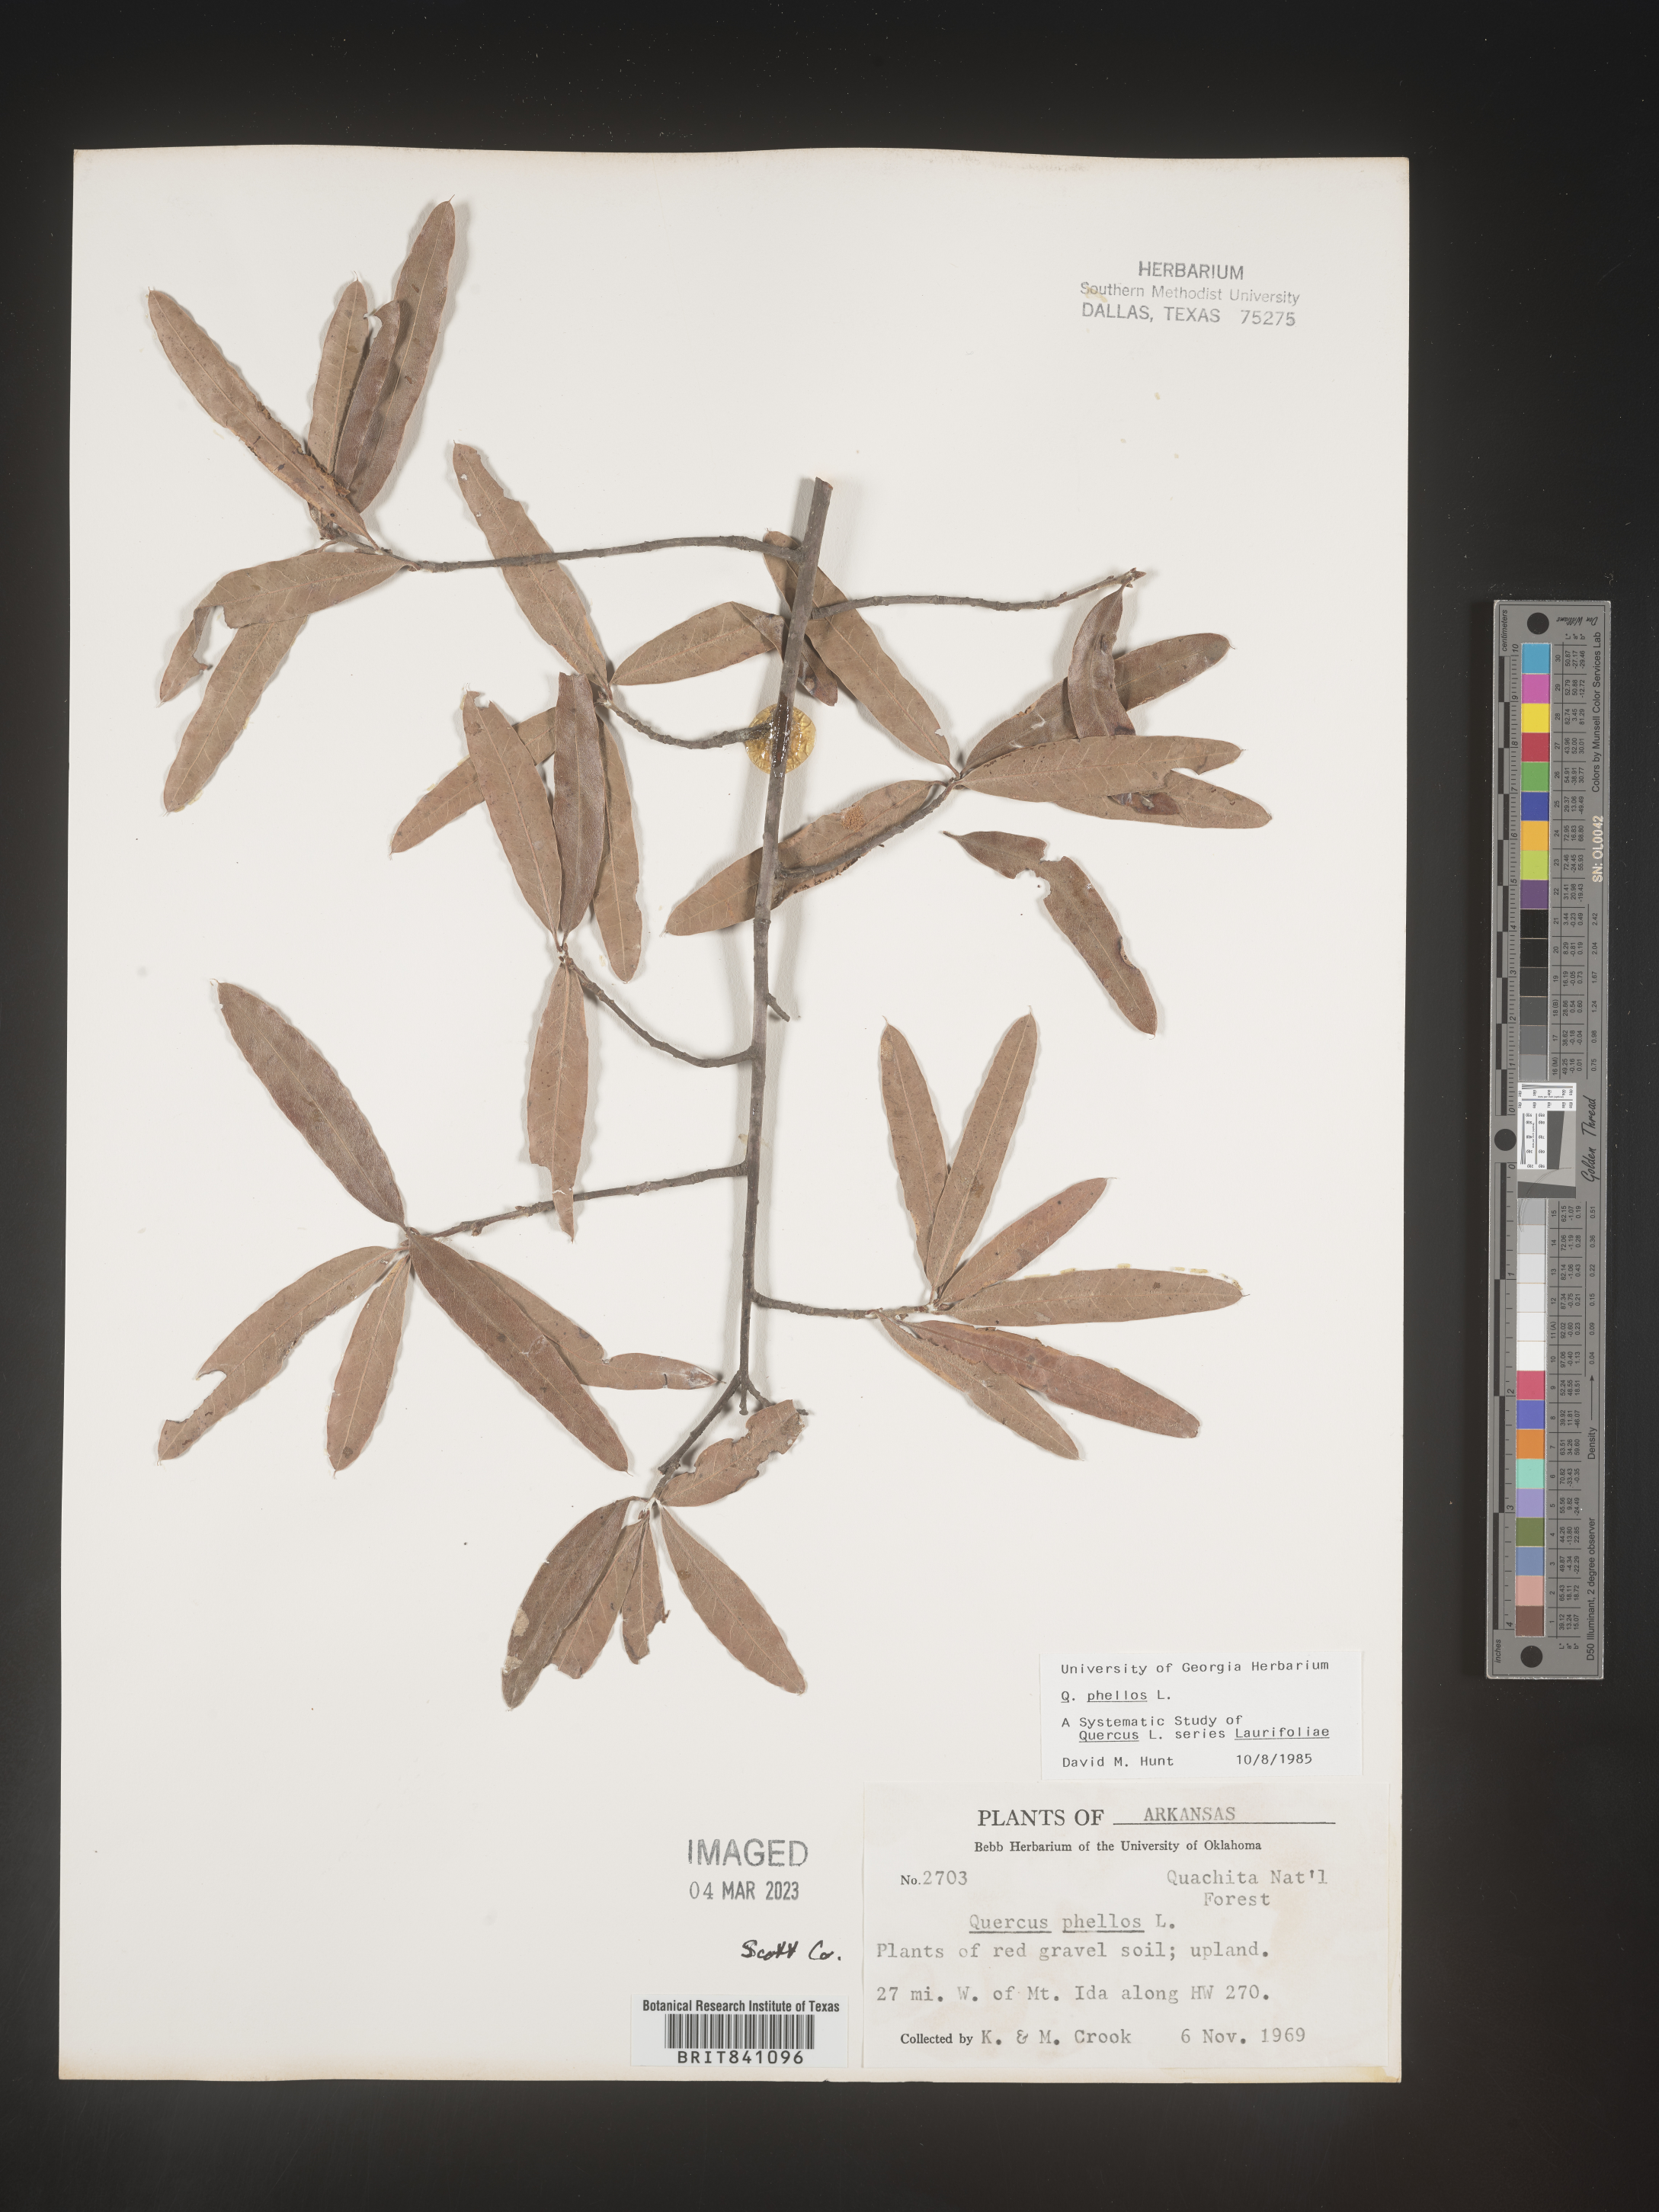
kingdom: Plantae
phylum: Tracheophyta
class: Magnoliopsida
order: Fagales
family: Fagaceae
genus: Quercus
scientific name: Quercus phellos
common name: Willow oak
